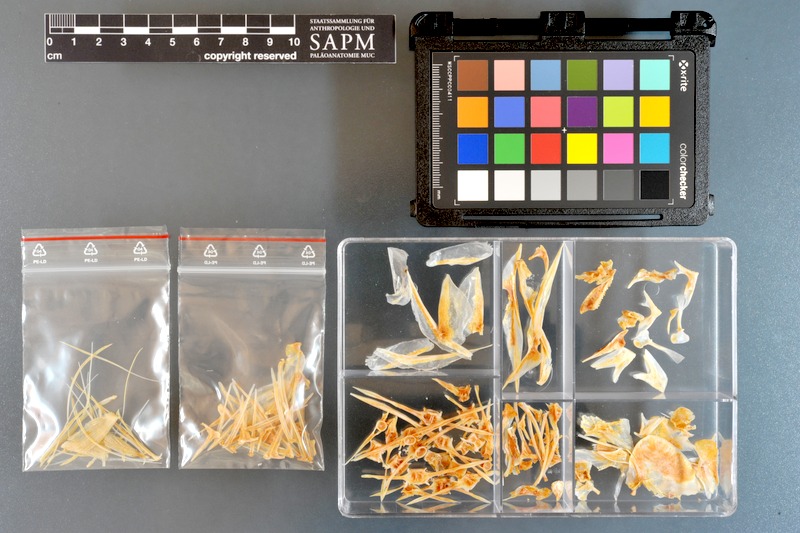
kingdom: Animalia
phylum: Chordata
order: Perciformes
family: Carangidae
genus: Alectis
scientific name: Alectis indica
